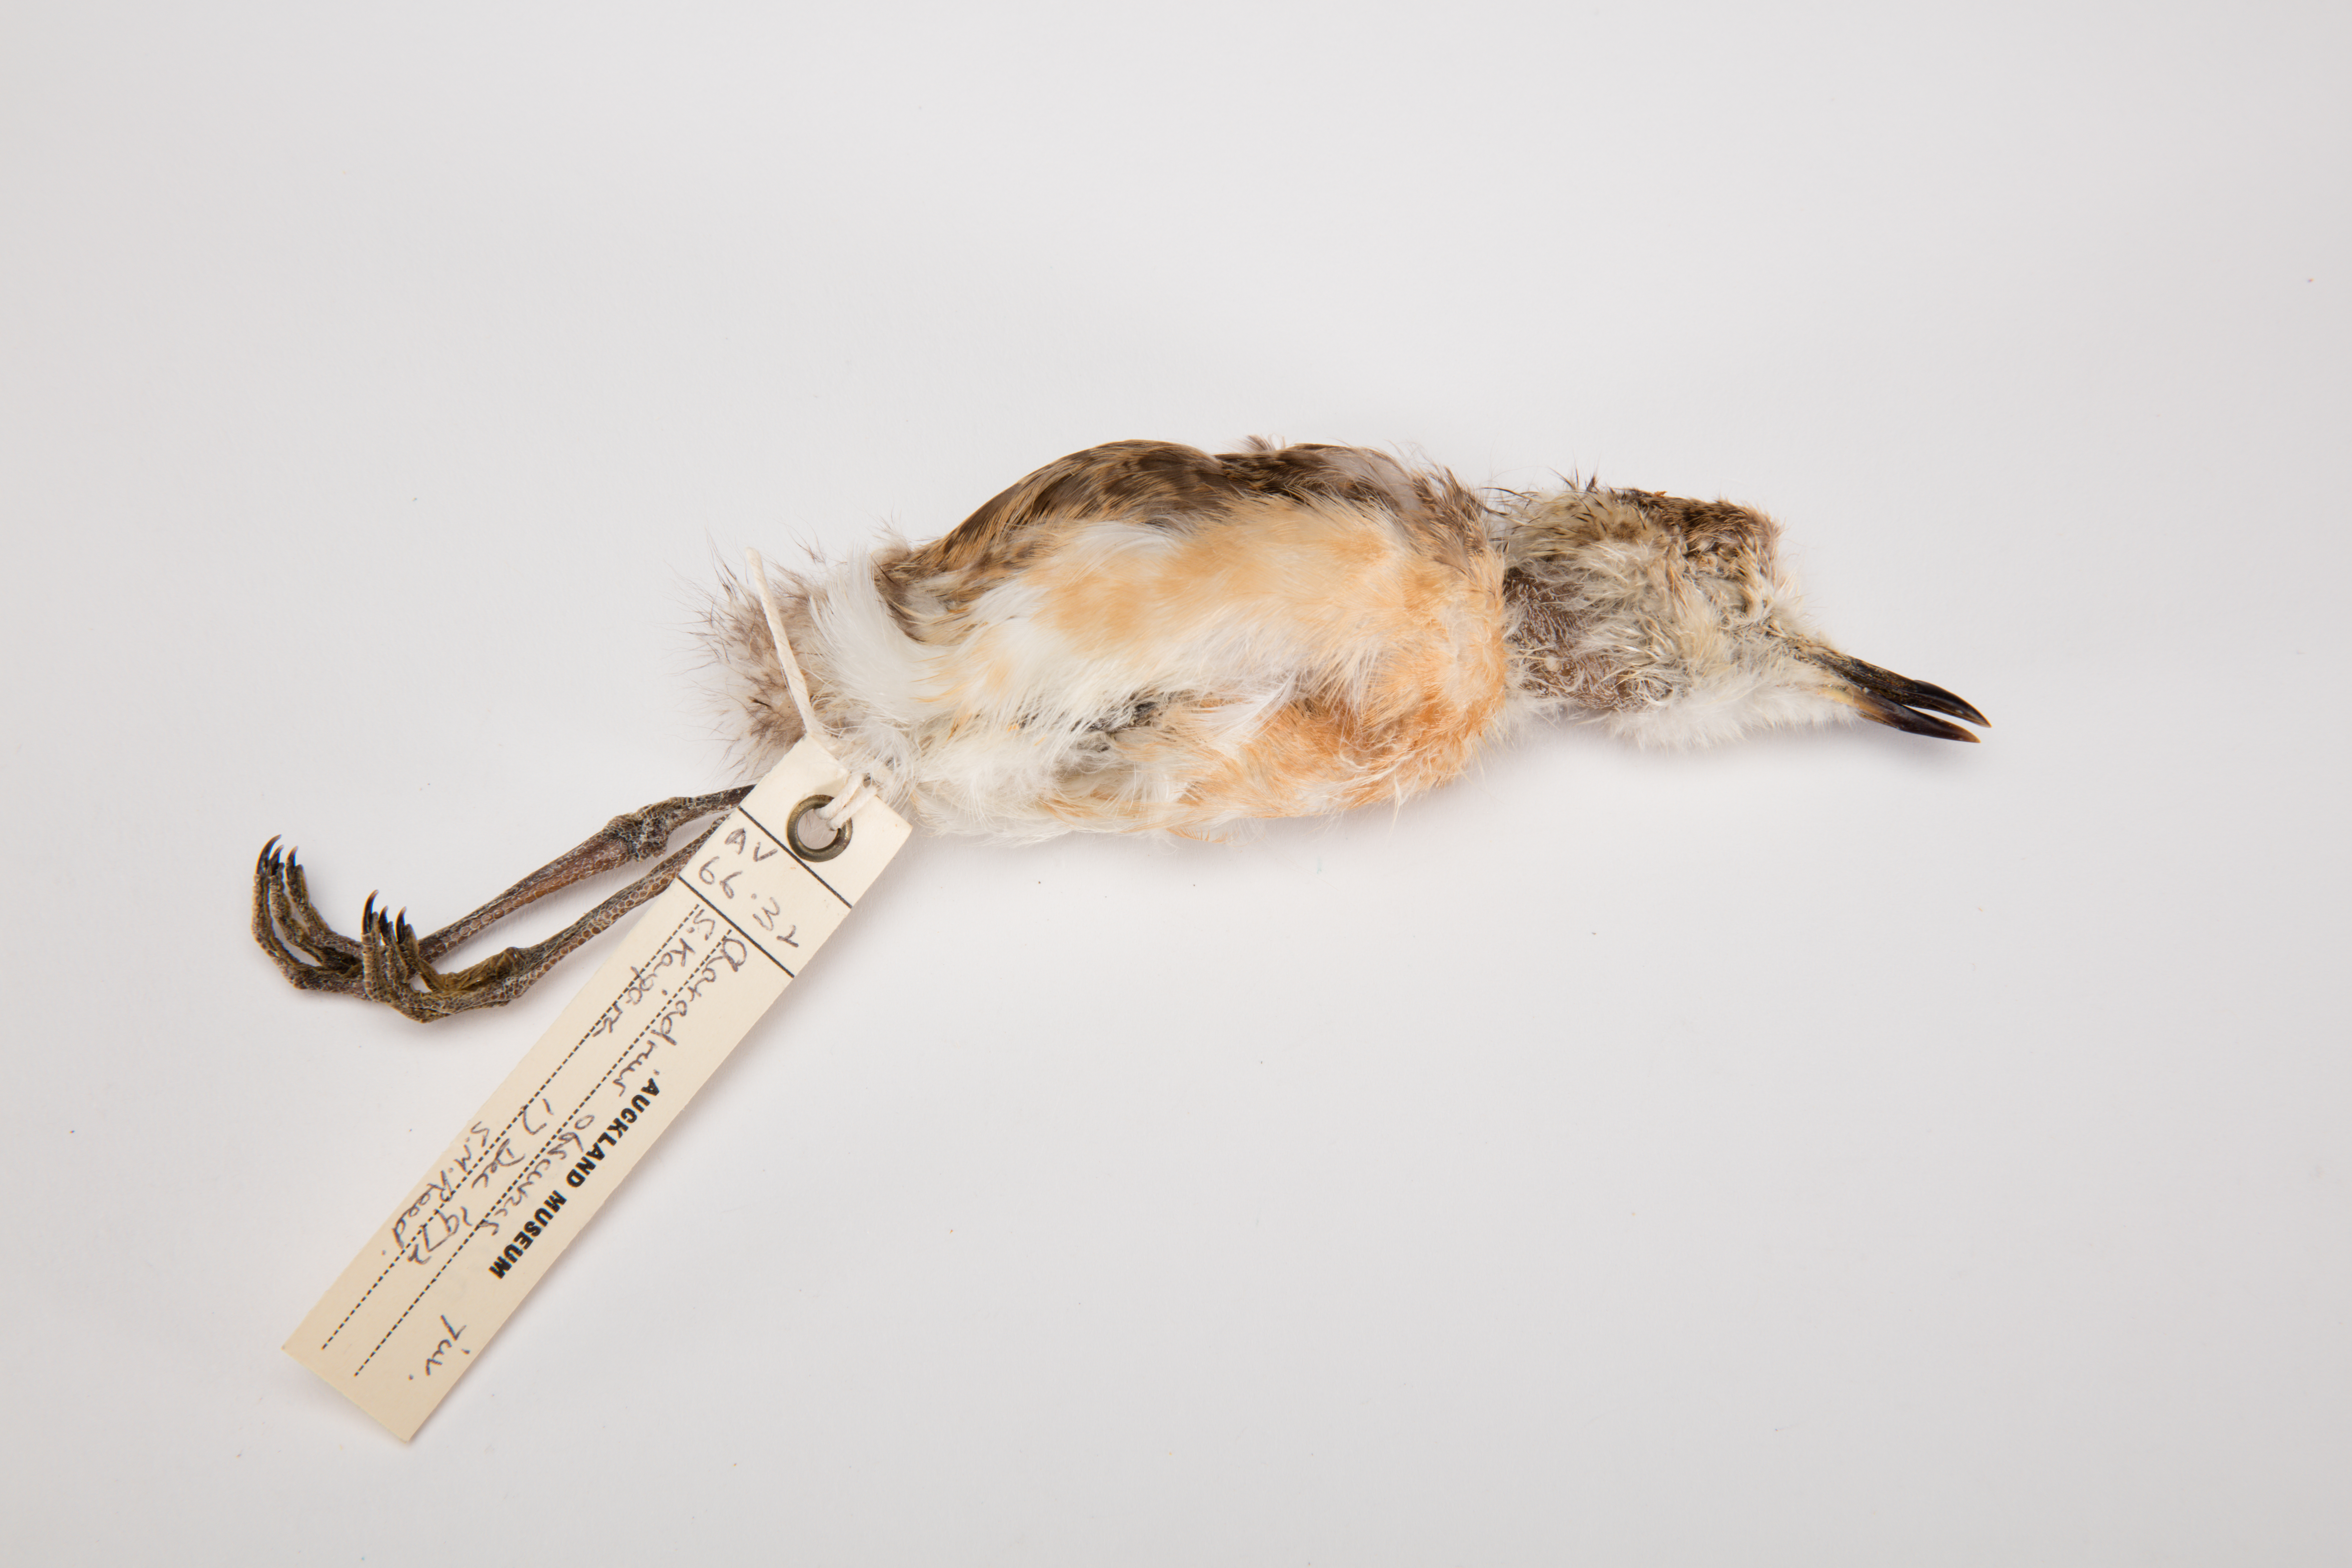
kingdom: Animalia
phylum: Chordata
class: Aves
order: Charadriiformes
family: Charadriidae
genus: Charadrius
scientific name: Charadrius obscurus
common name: New zealand plover
